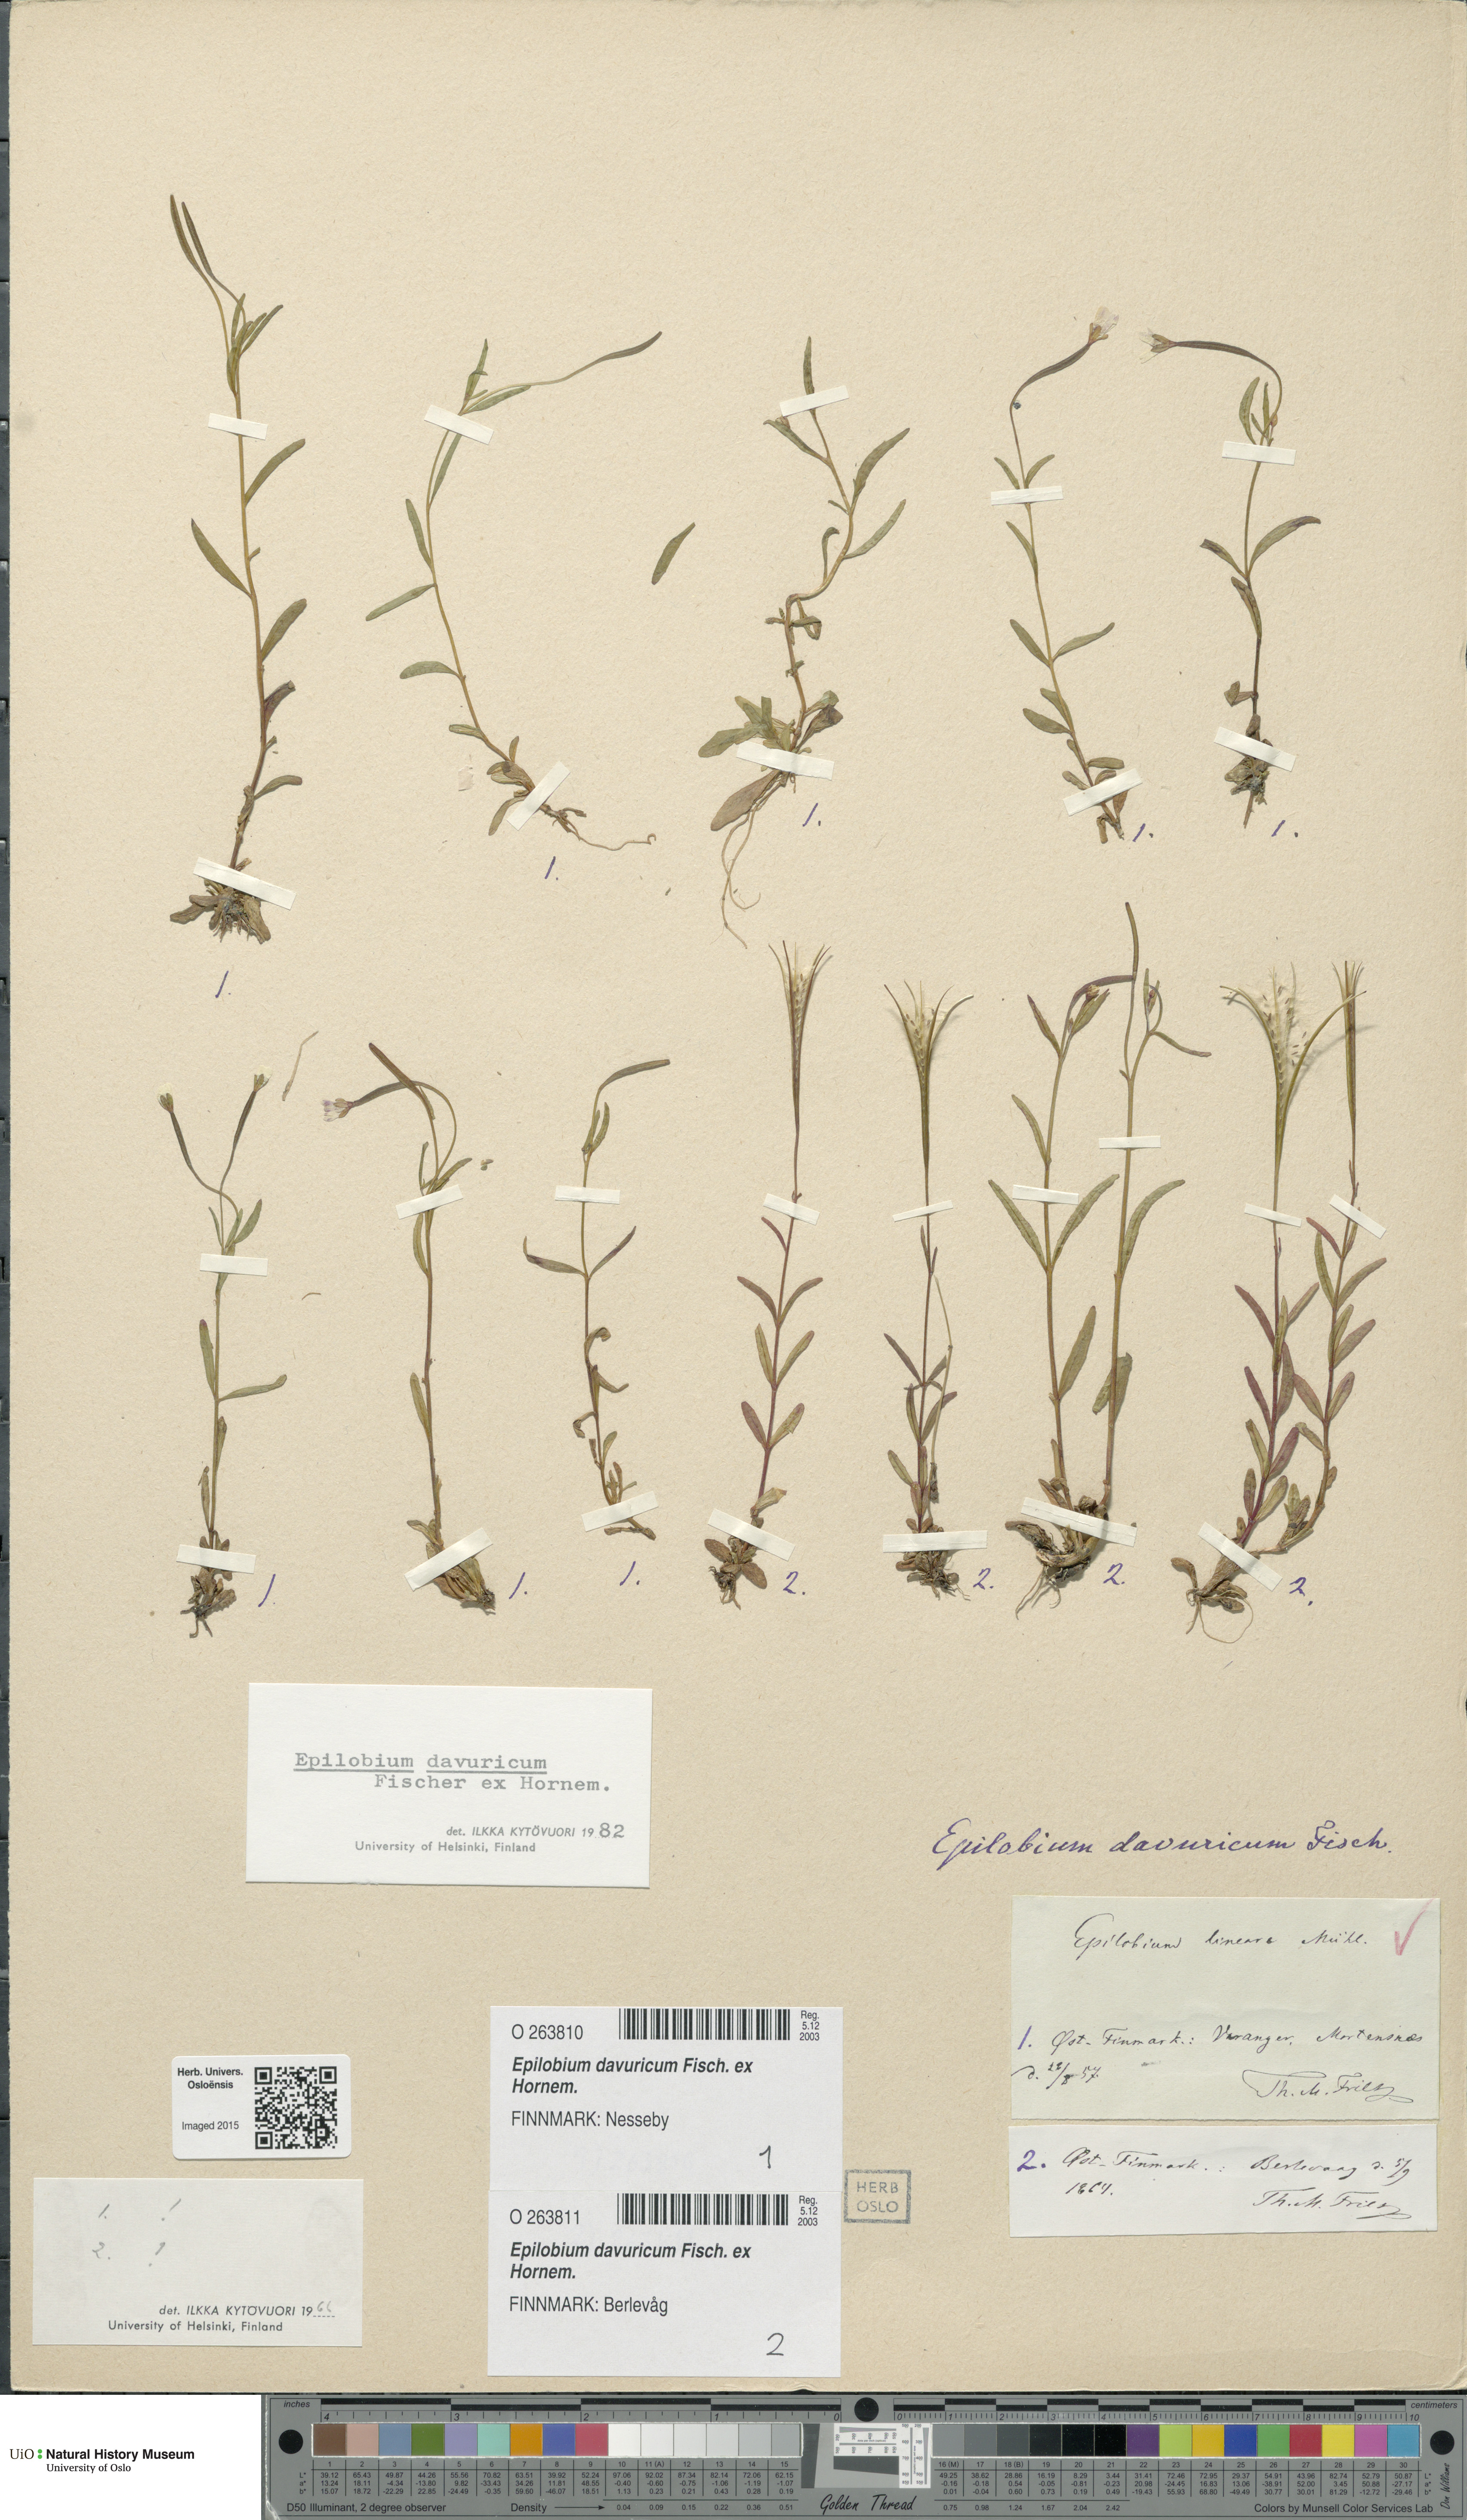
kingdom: Plantae
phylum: Tracheophyta
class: Magnoliopsida
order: Myrtales
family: Onagraceae
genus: Epilobium
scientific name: Epilobium davuricum
